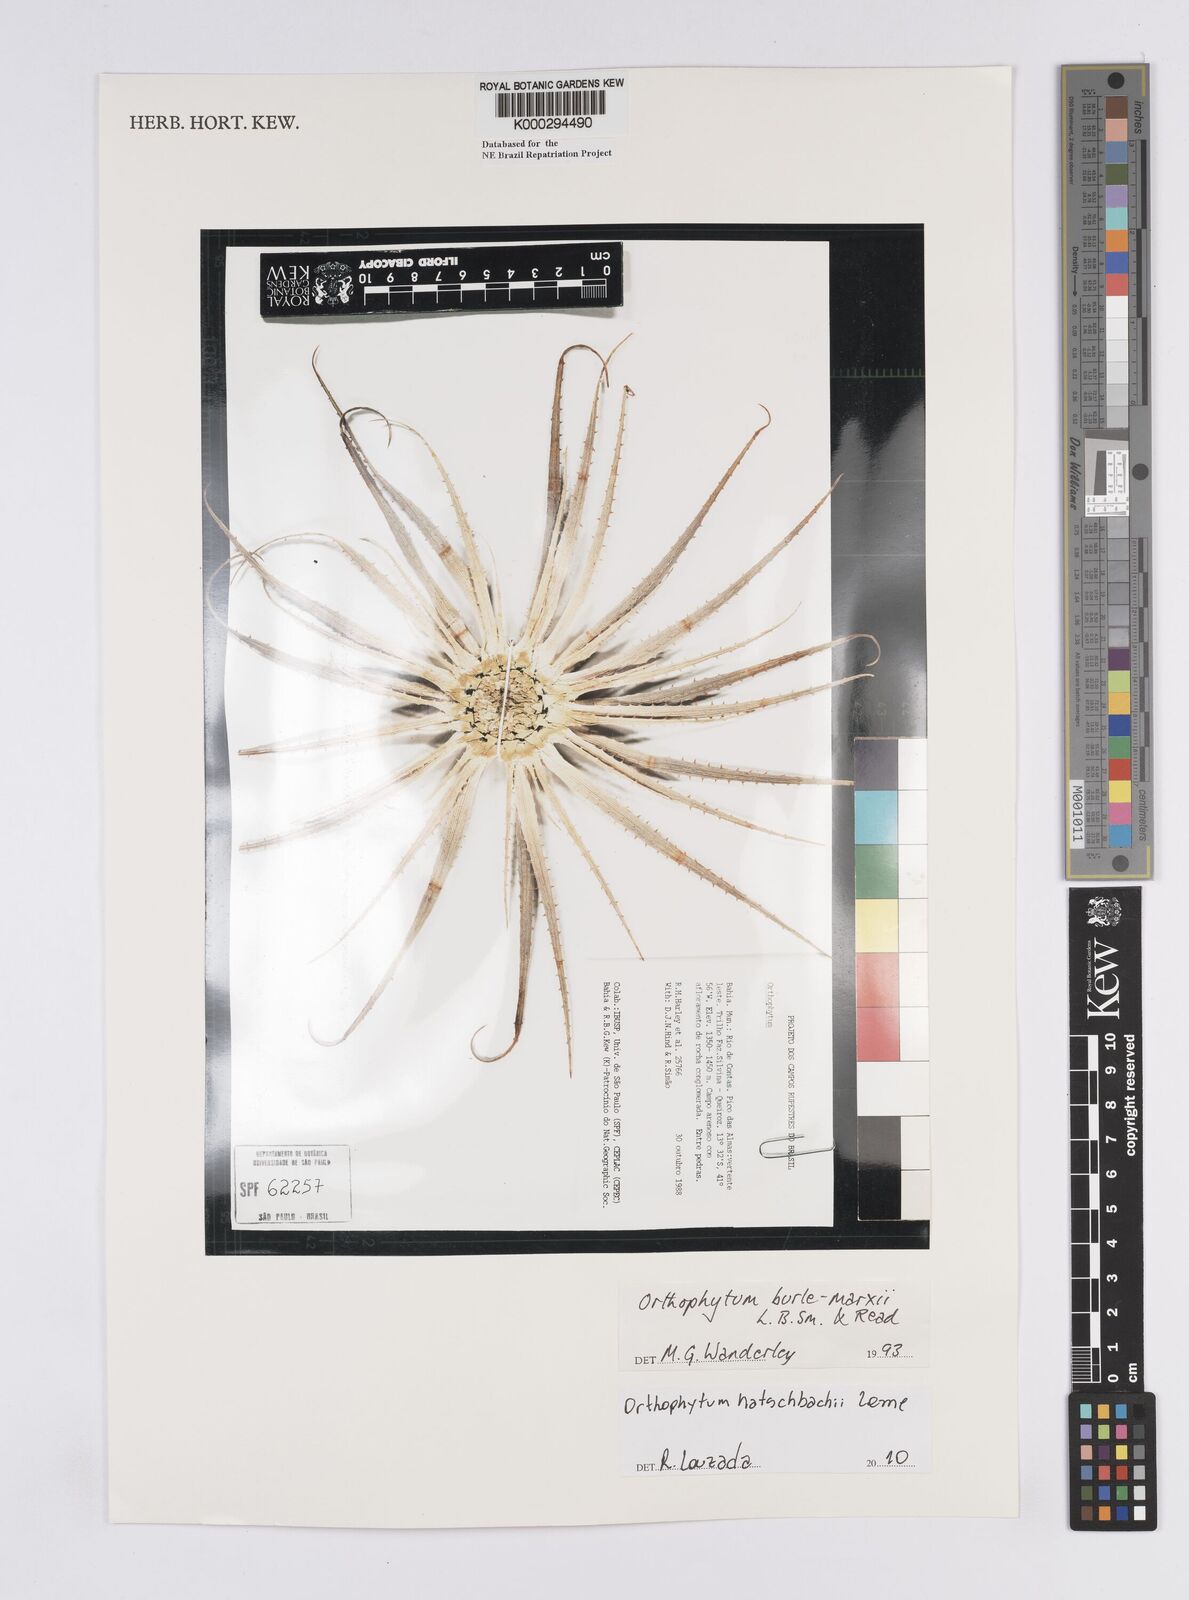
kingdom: Plantae
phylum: Tracheophyta
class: Liliopsida
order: Poales
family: Bromeliaceae
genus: Sincoraea
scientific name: Sincoraea burle-marxii
